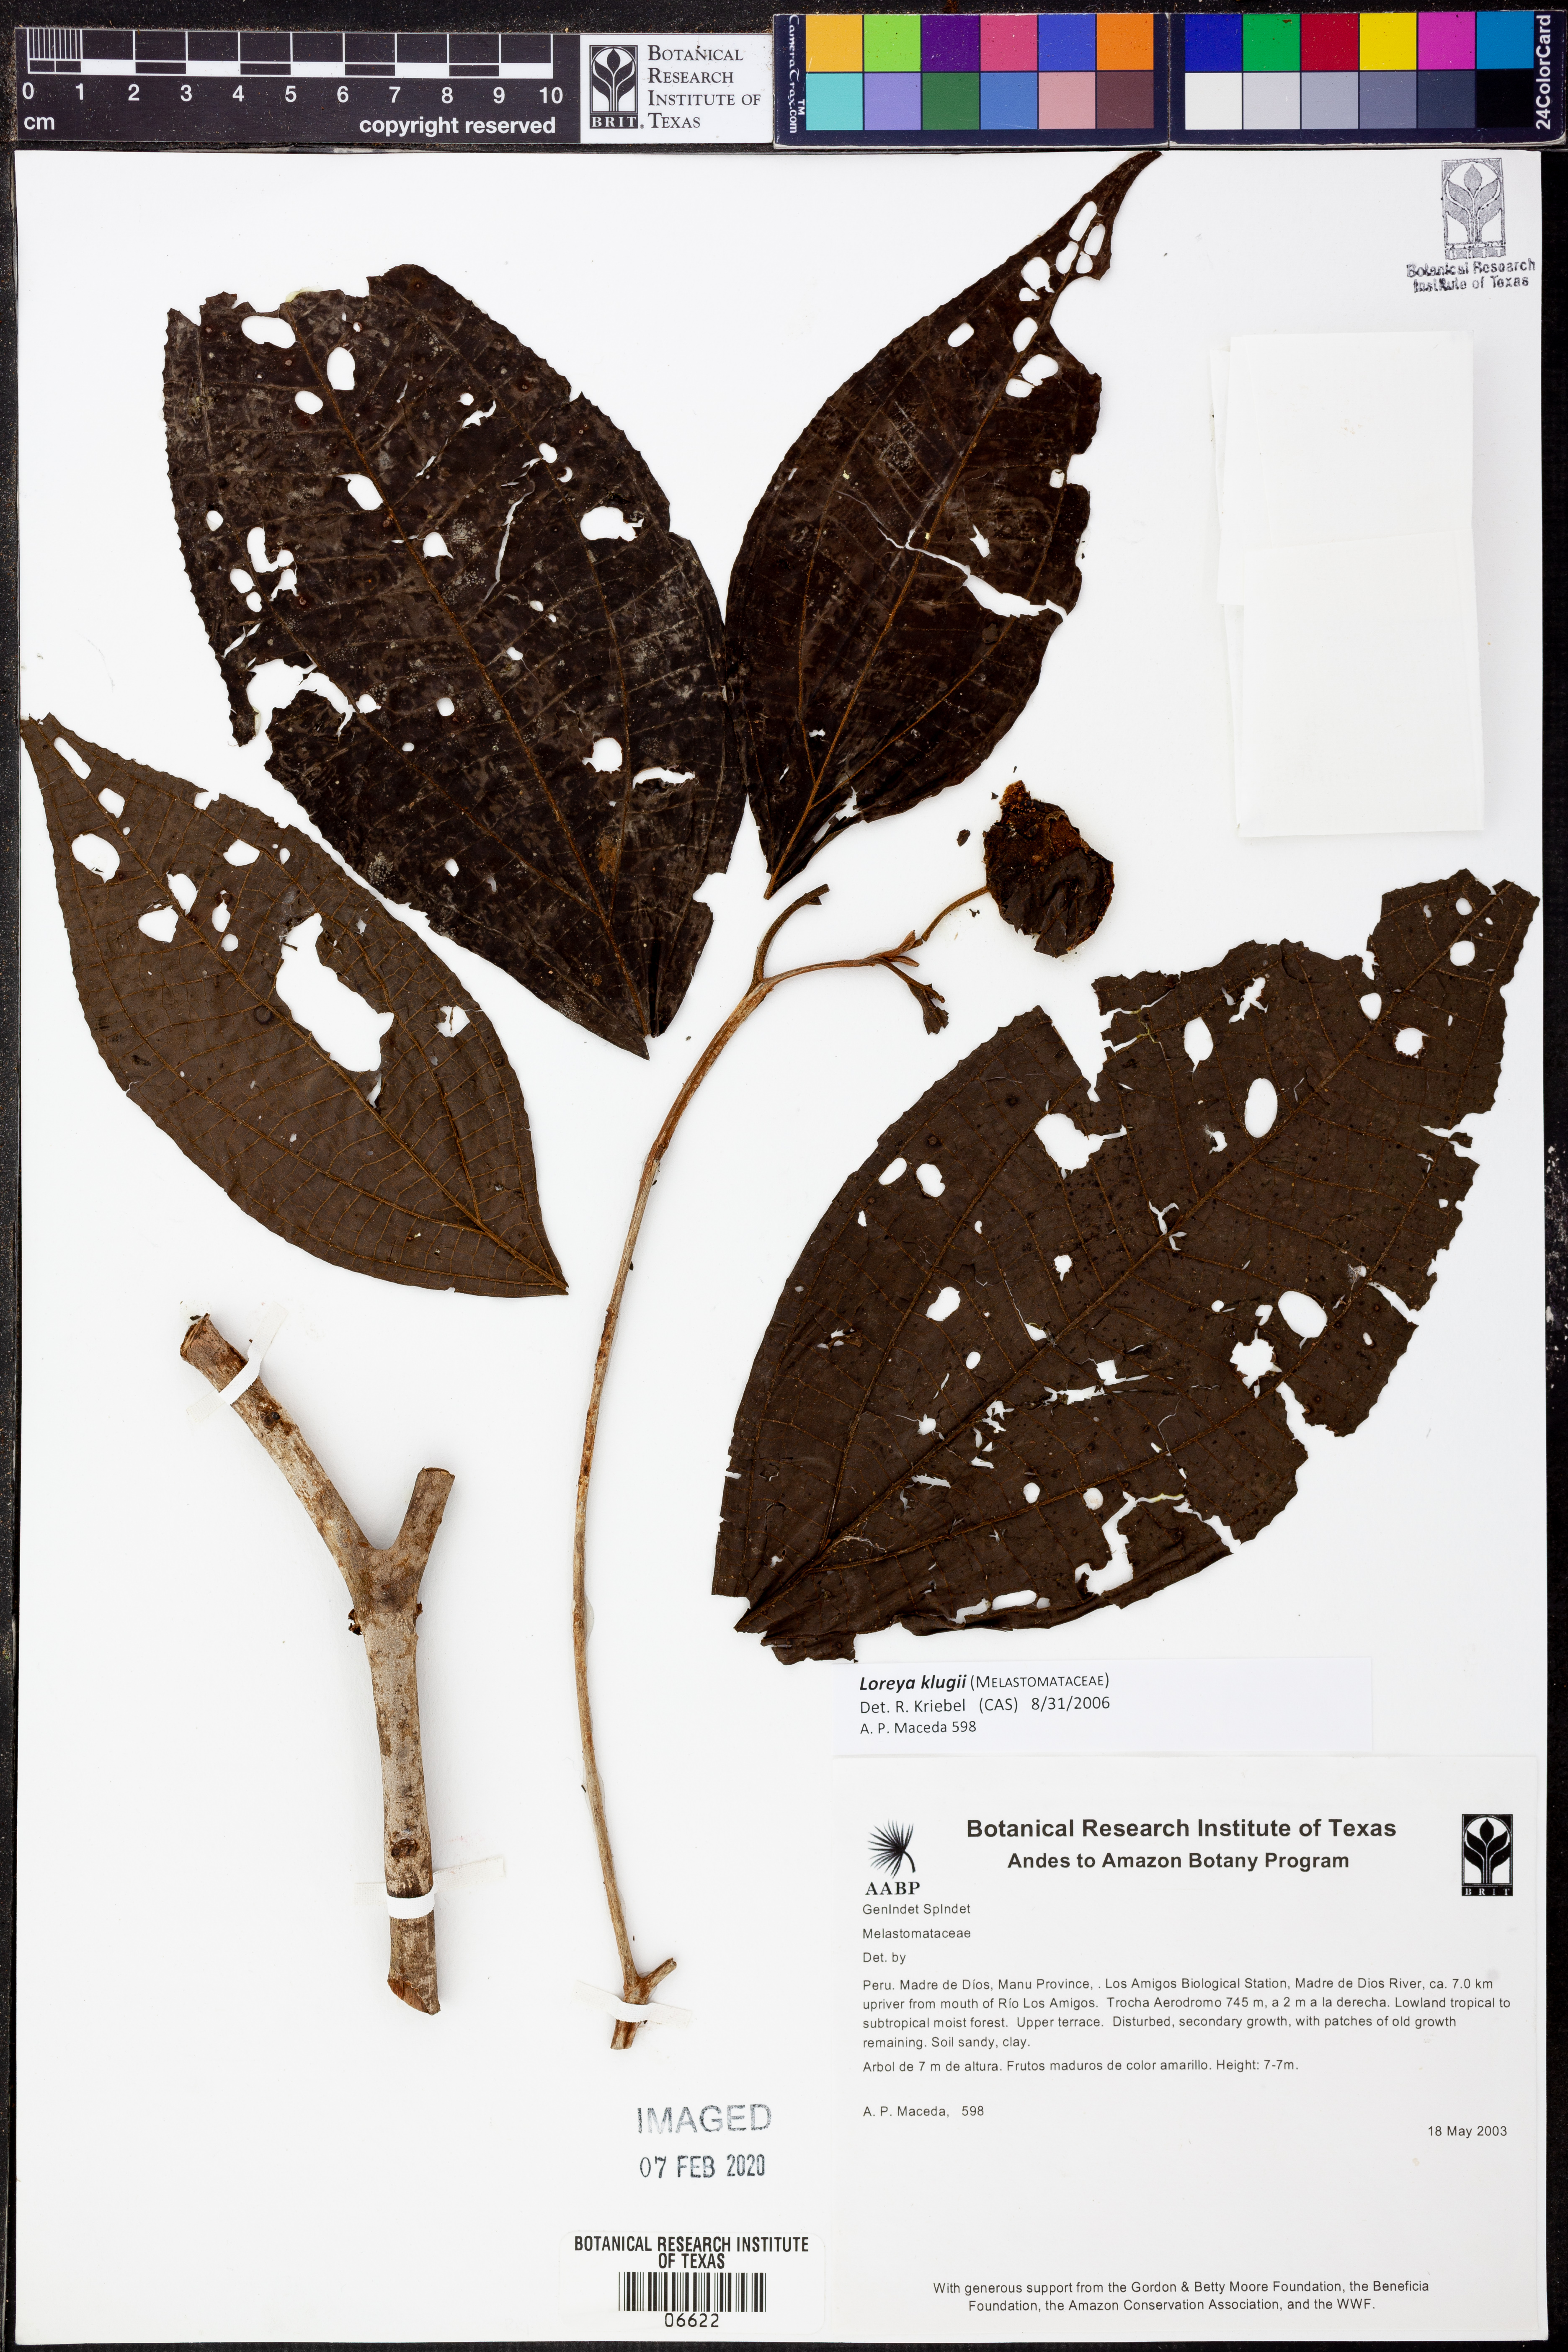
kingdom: Plantae
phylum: Tracheophyta
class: Magnoliopsida
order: Myrtales
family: Melastomataceae
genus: Bellucia
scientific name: Bellucia klugii
